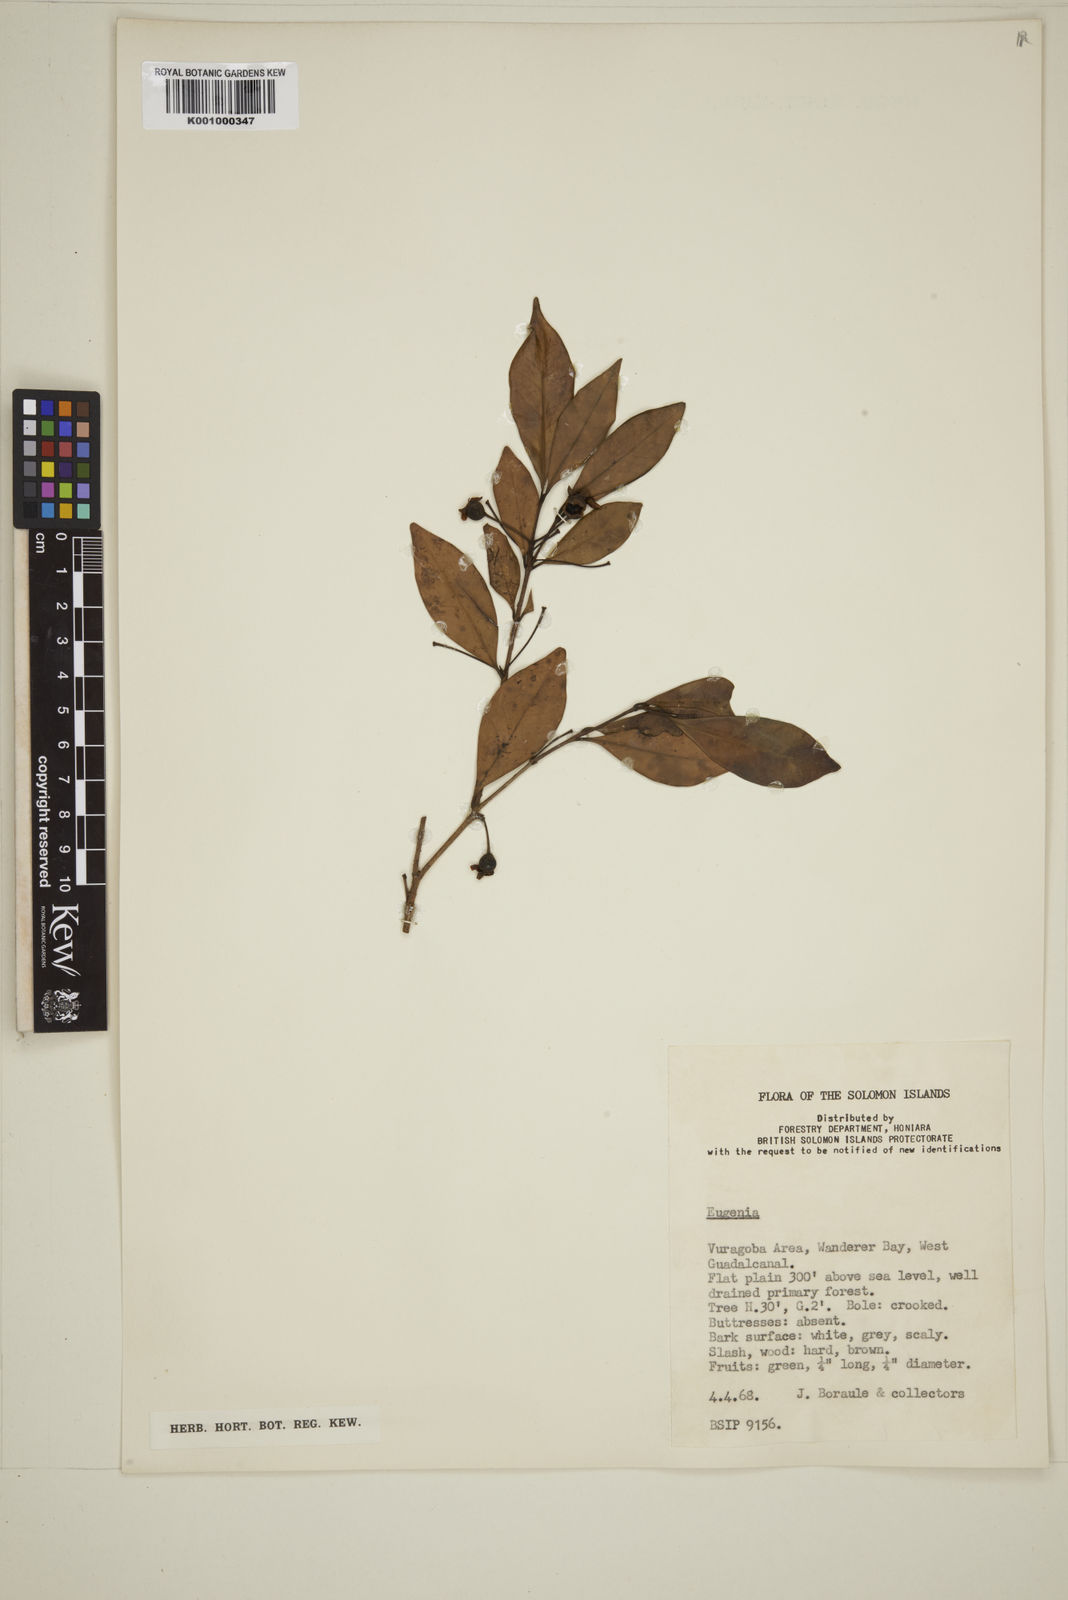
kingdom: Plantae
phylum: Tracheophyta
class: Magnoliopsida
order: Myrtales
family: Myrtaceae
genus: Eugenia
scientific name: Eugenia
